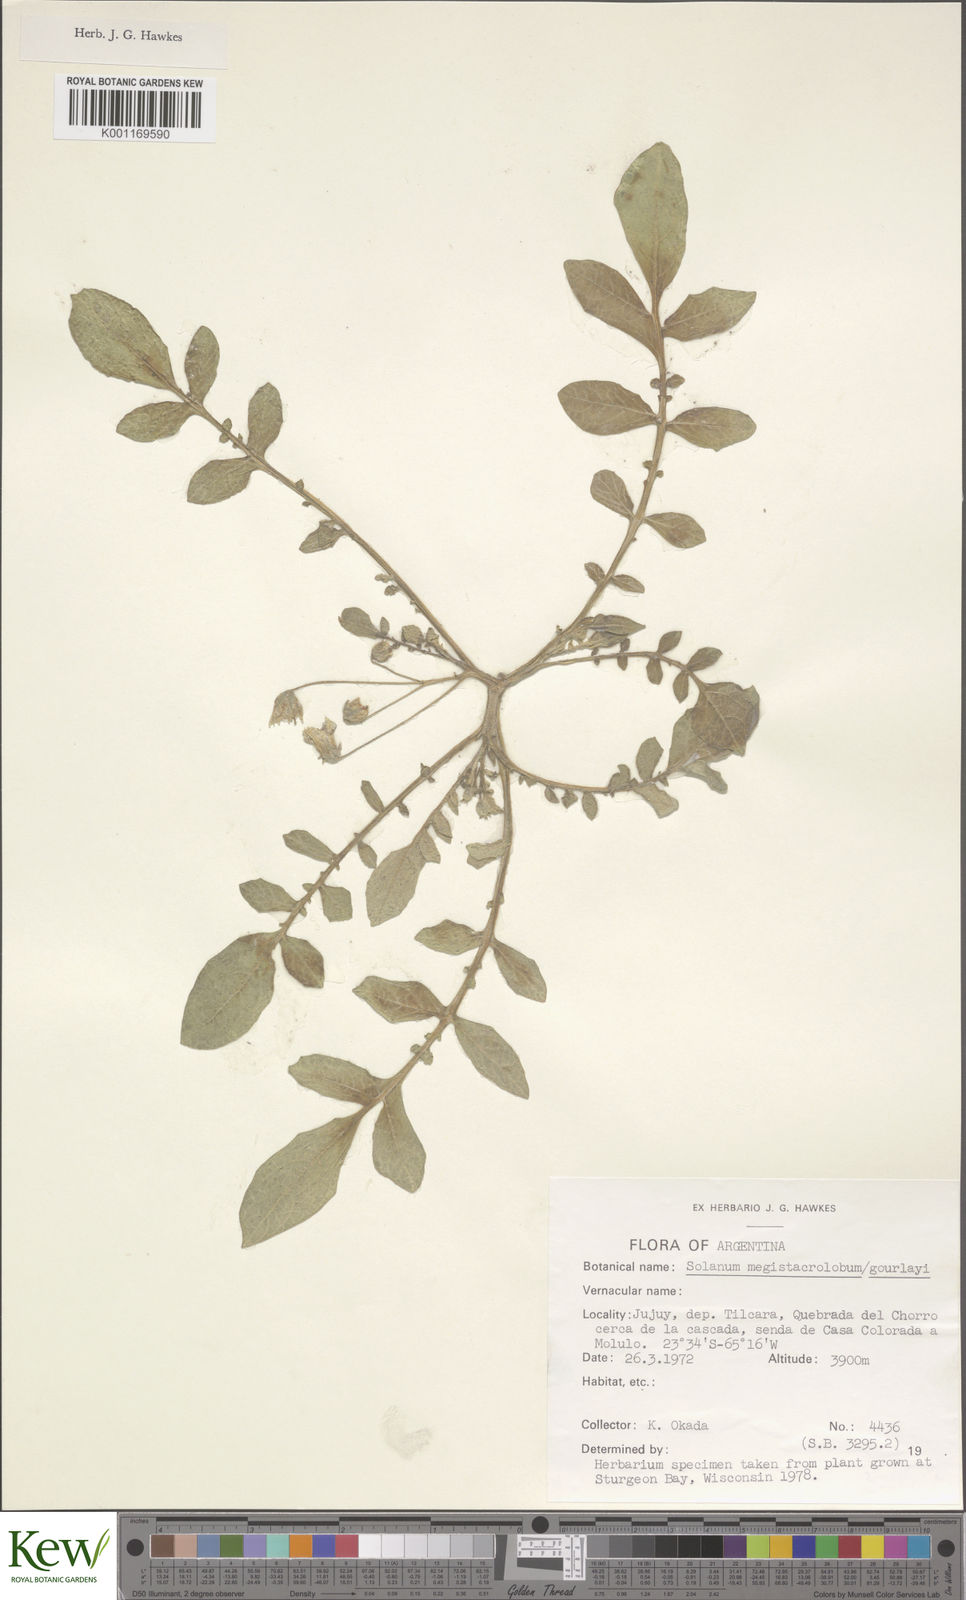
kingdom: Plantae
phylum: Tracheophyta
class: Magnoliopsida
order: Solanales
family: Solanaceae
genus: Solanum
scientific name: Solanum boliviense
